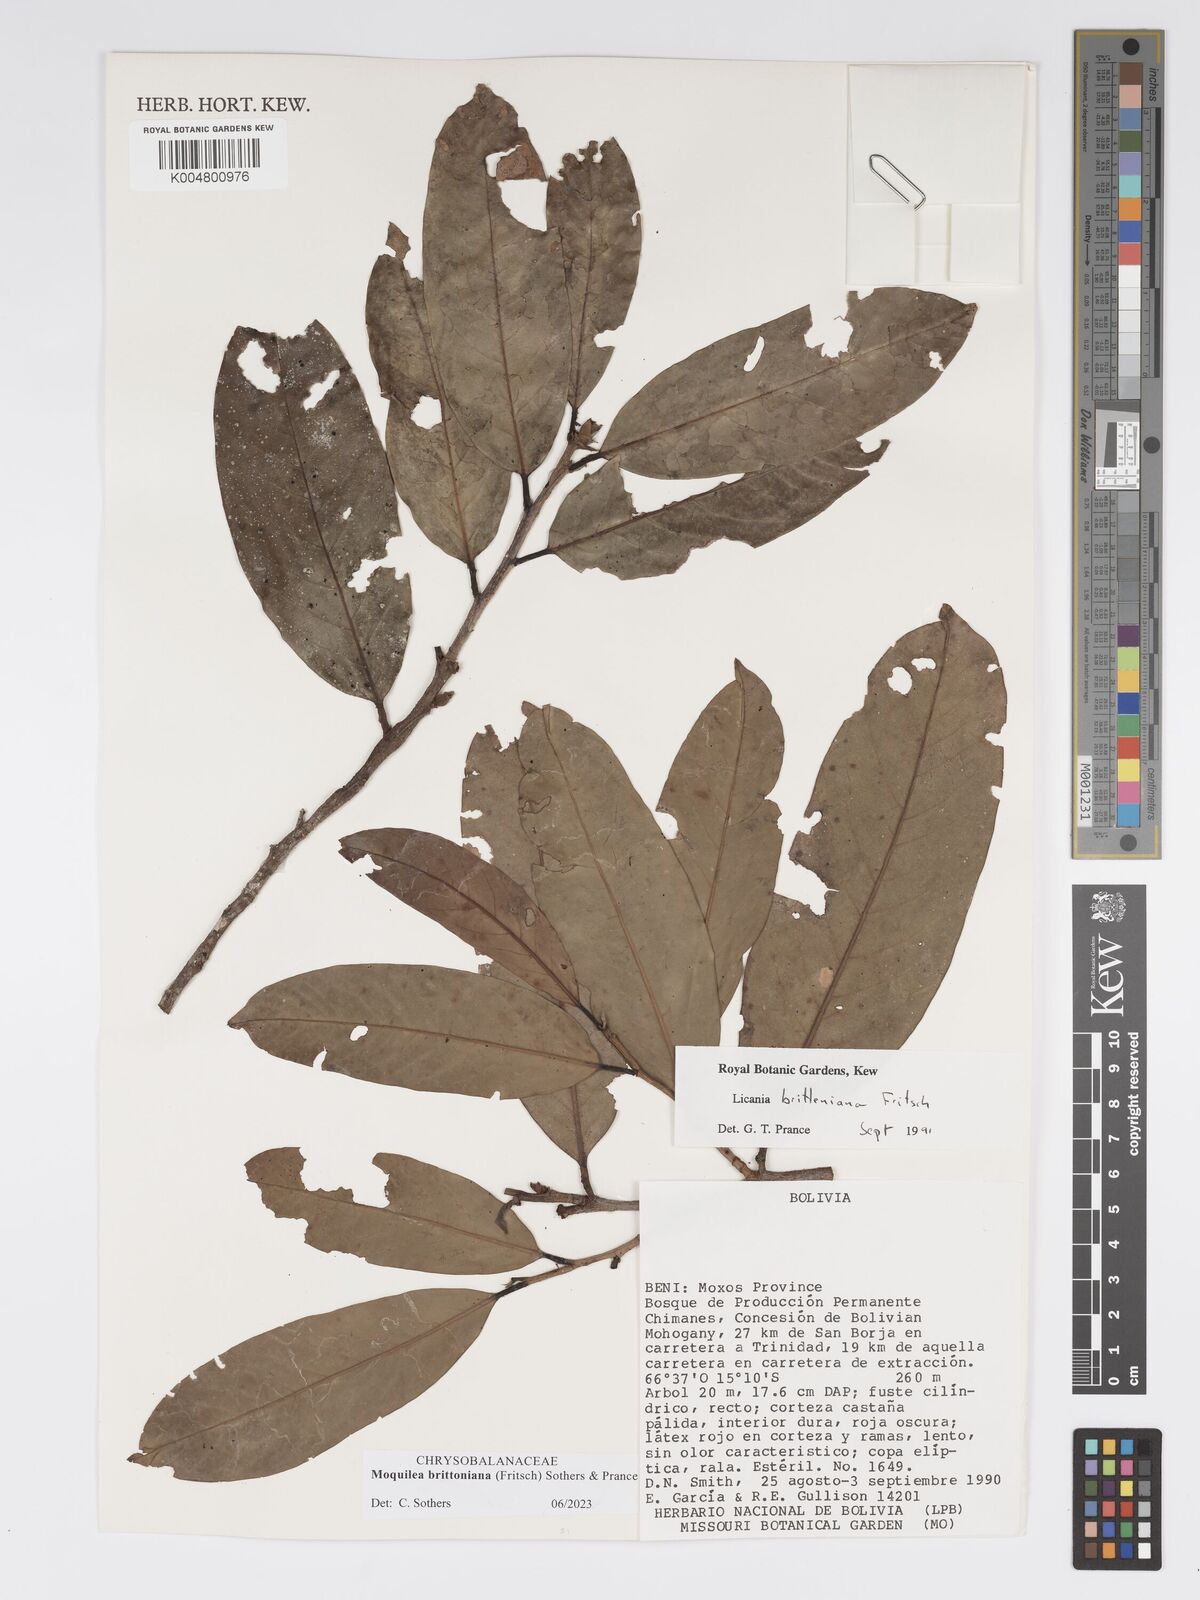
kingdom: Plantae
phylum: Tracheophyta
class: Magnoliopsida
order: Malpighiales
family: Chrysobalanaceae
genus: Moquilea
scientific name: Moquilea brittoniana
